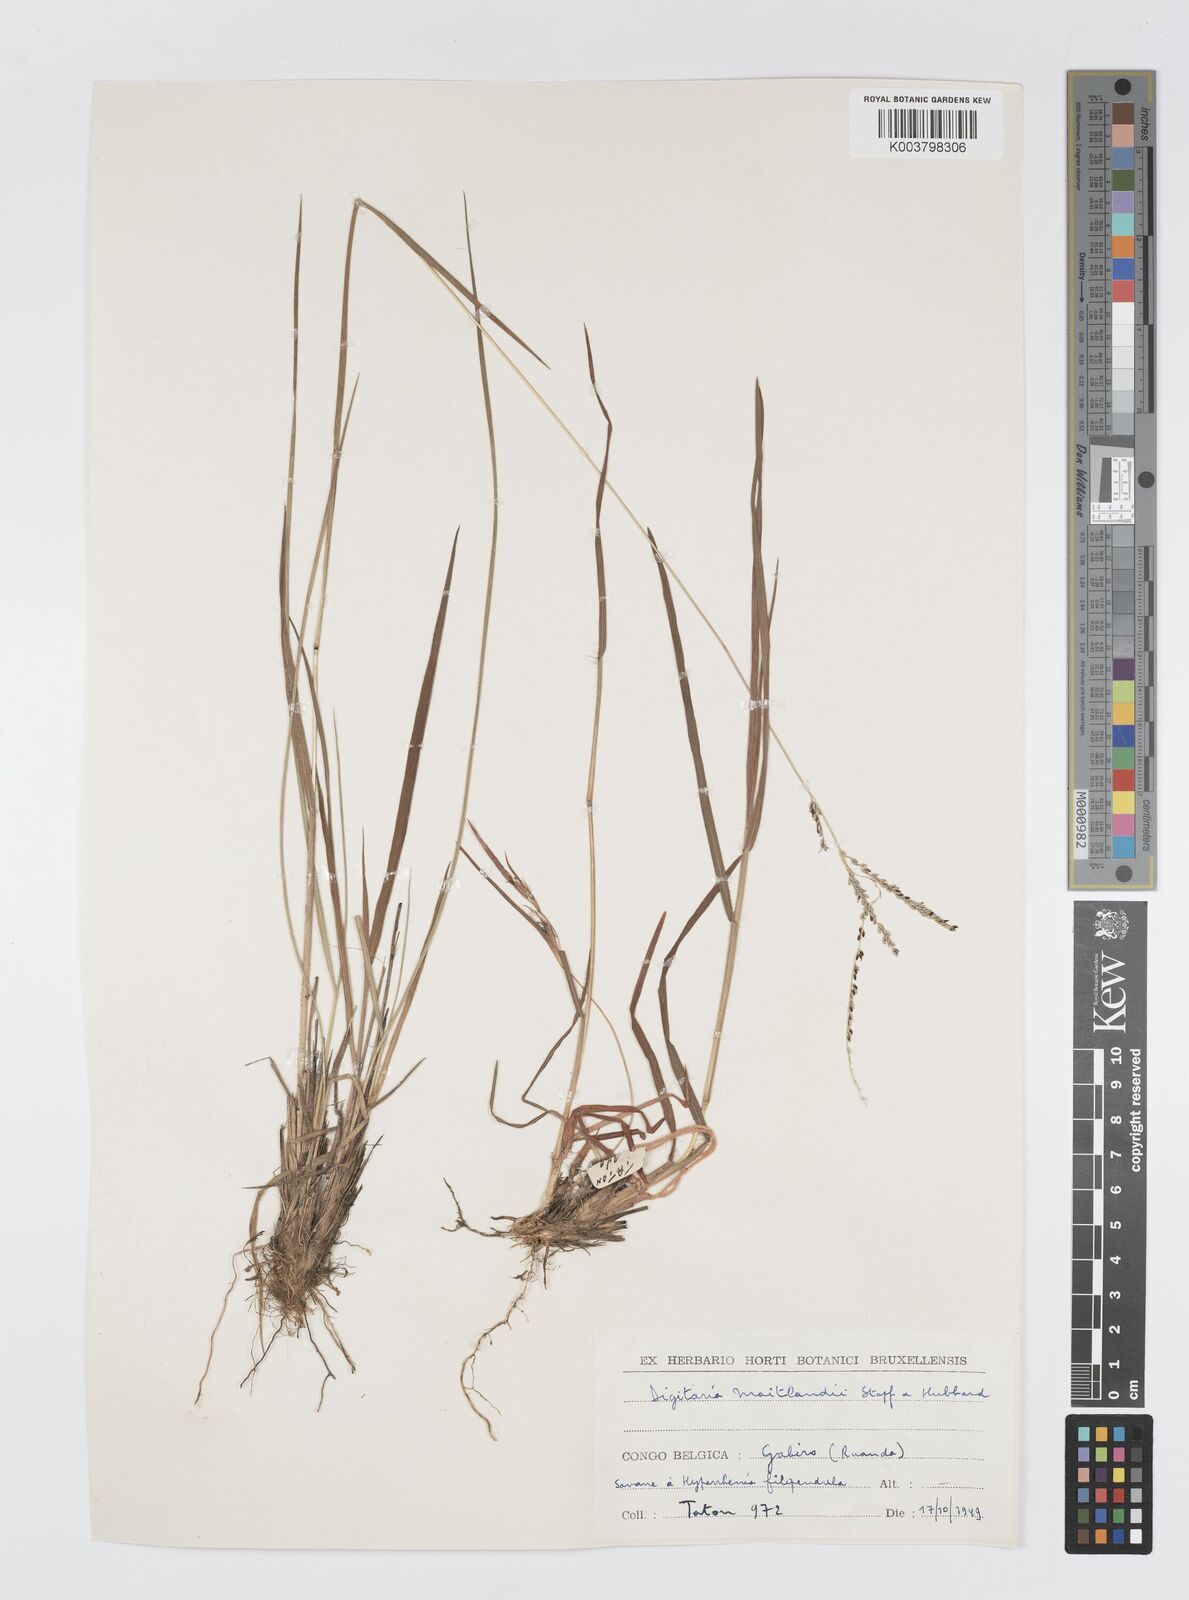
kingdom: Plantae
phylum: Tracheophyta
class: Liliopsida
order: Poales
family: Poaceae
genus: Digitaria
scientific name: Digitaria maitlandii
